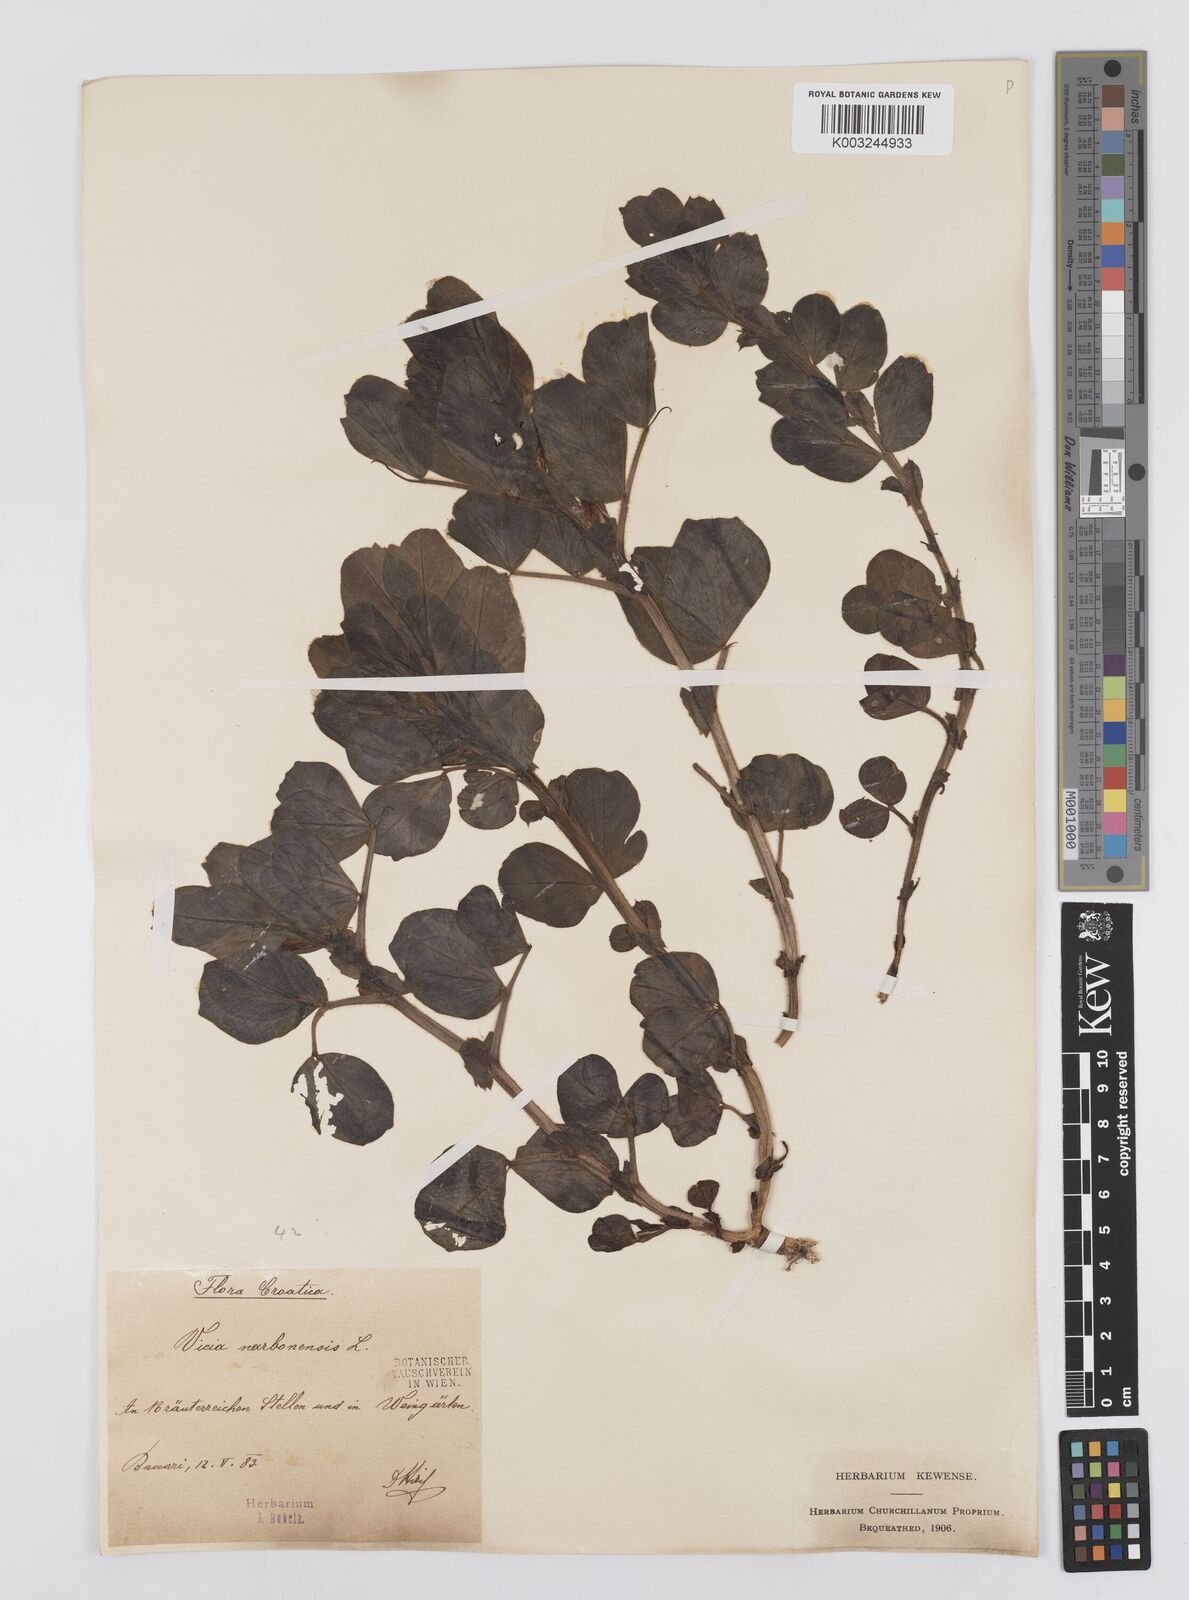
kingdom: Plantae
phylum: Tracheophyta
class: Magnoliopsida
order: Fabales
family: Fabaceae
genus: Vicia
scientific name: Vicia narbonensis
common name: Narbonne vetch
